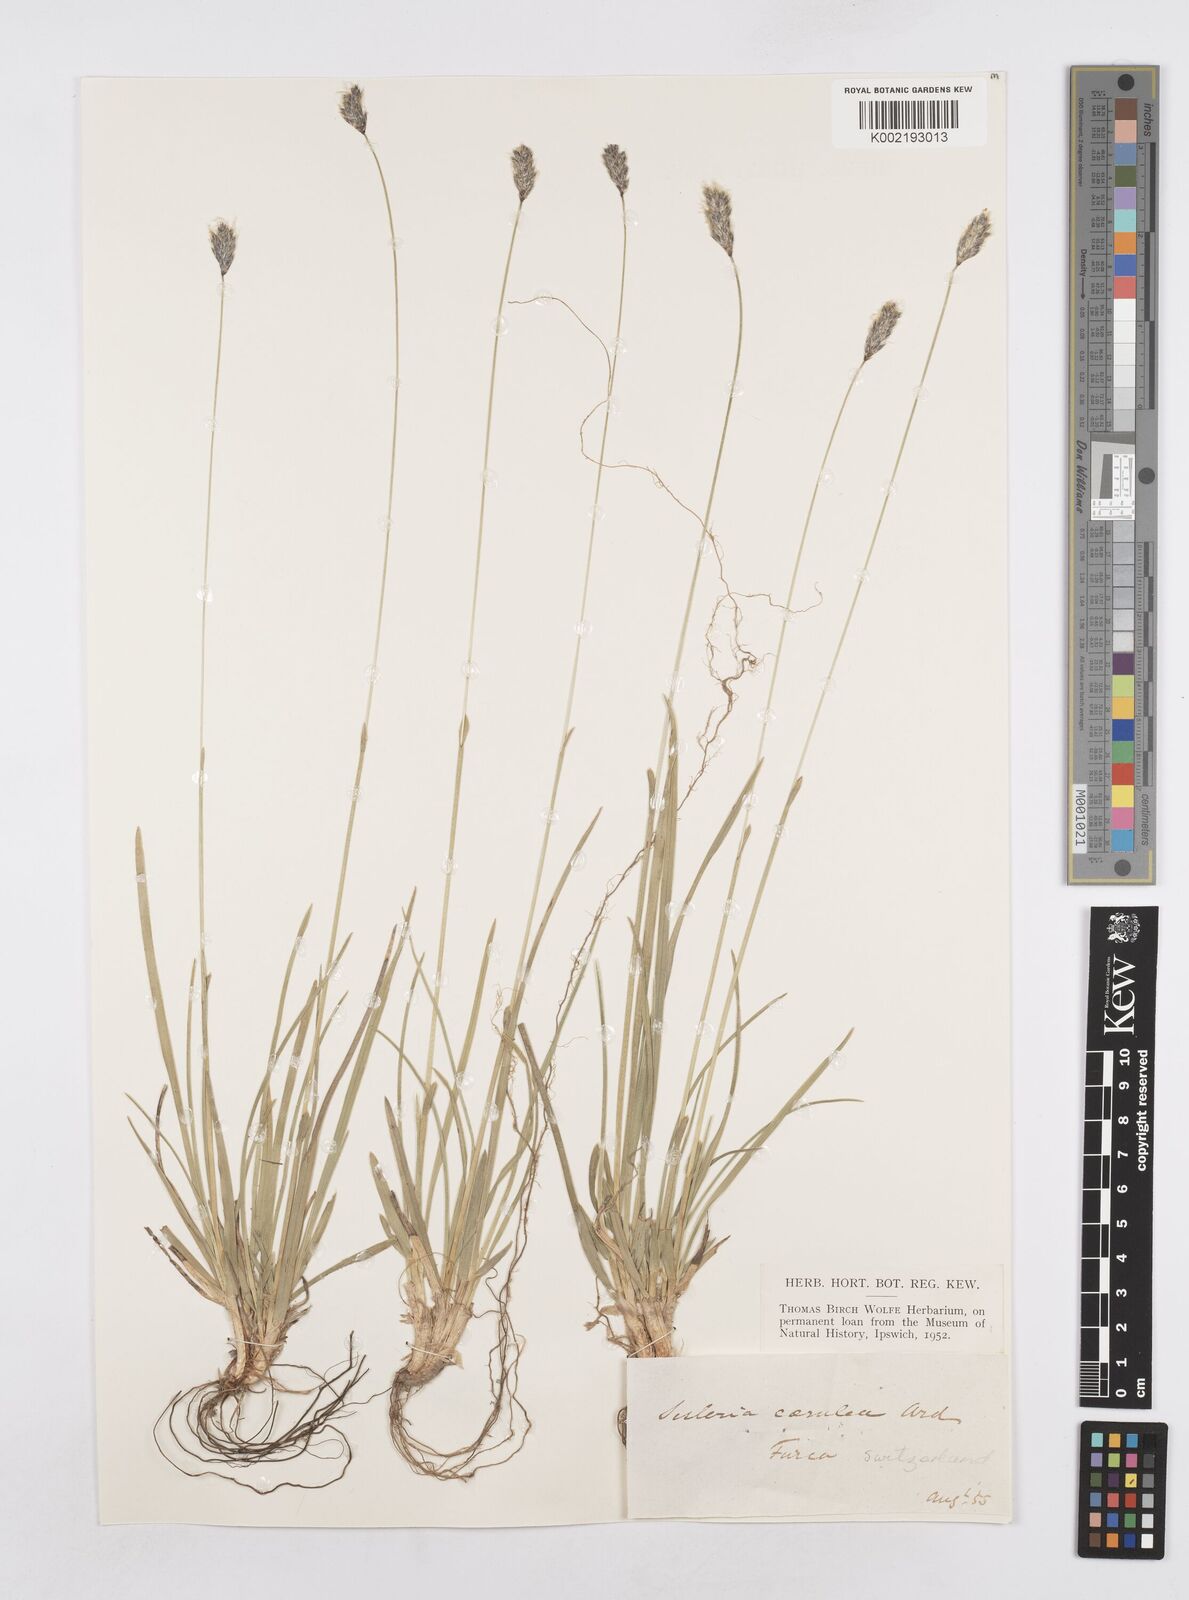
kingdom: Plantae
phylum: Tracheophyta
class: Liliopsida
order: Poales
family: Poaceae
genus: Sesleria
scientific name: Sesleria caerulea
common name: Blue moor-grass
